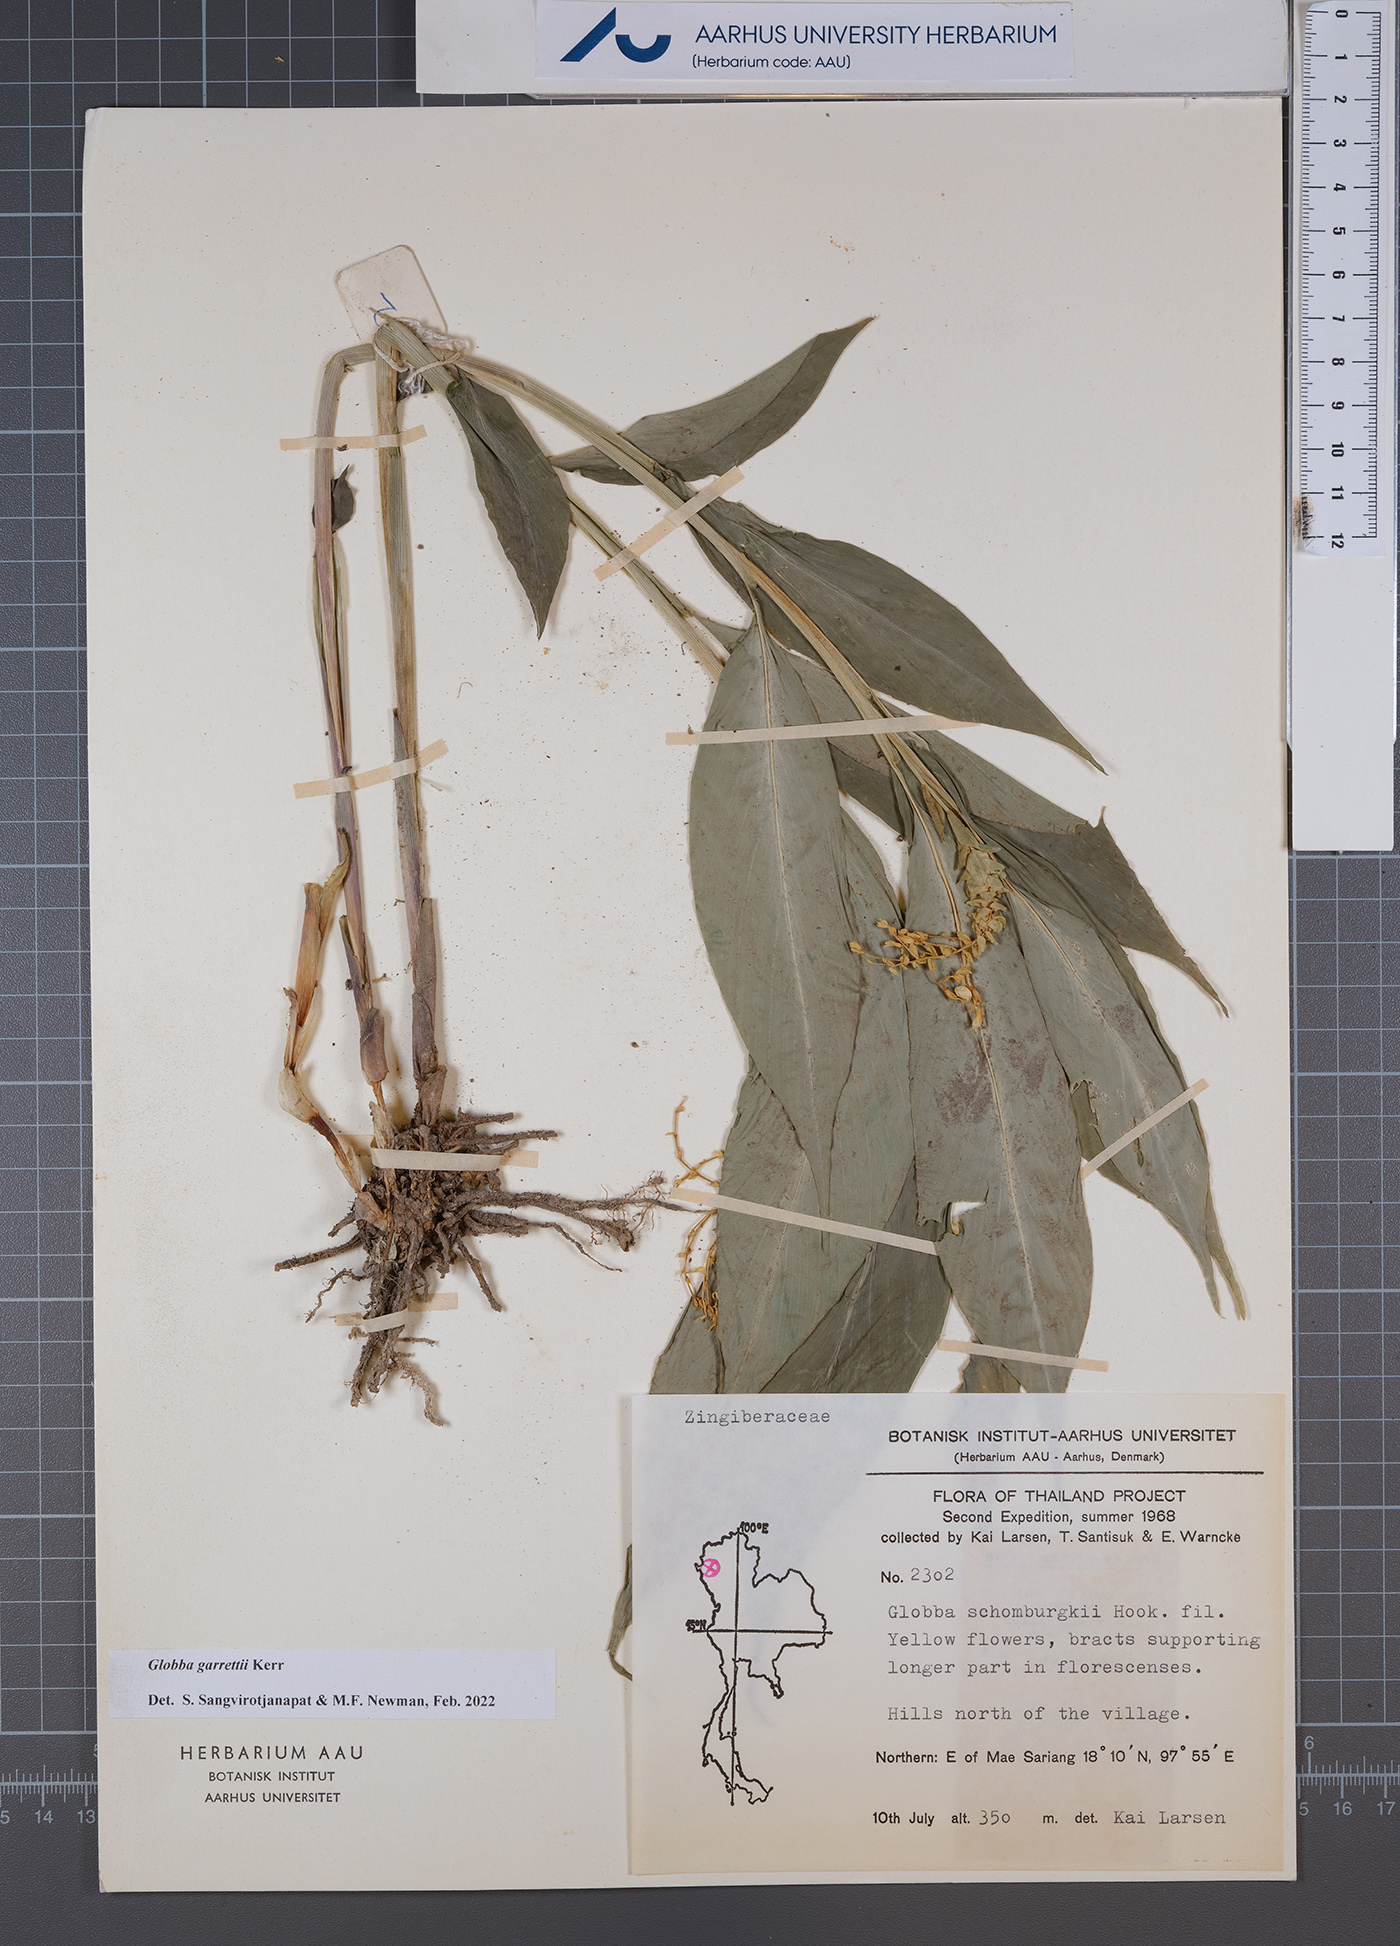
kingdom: Plantae
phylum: Tracheophyta
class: Liliopsida
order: Zingiberales
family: Zingiberaceae
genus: Globba
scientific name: Globba garrettii
